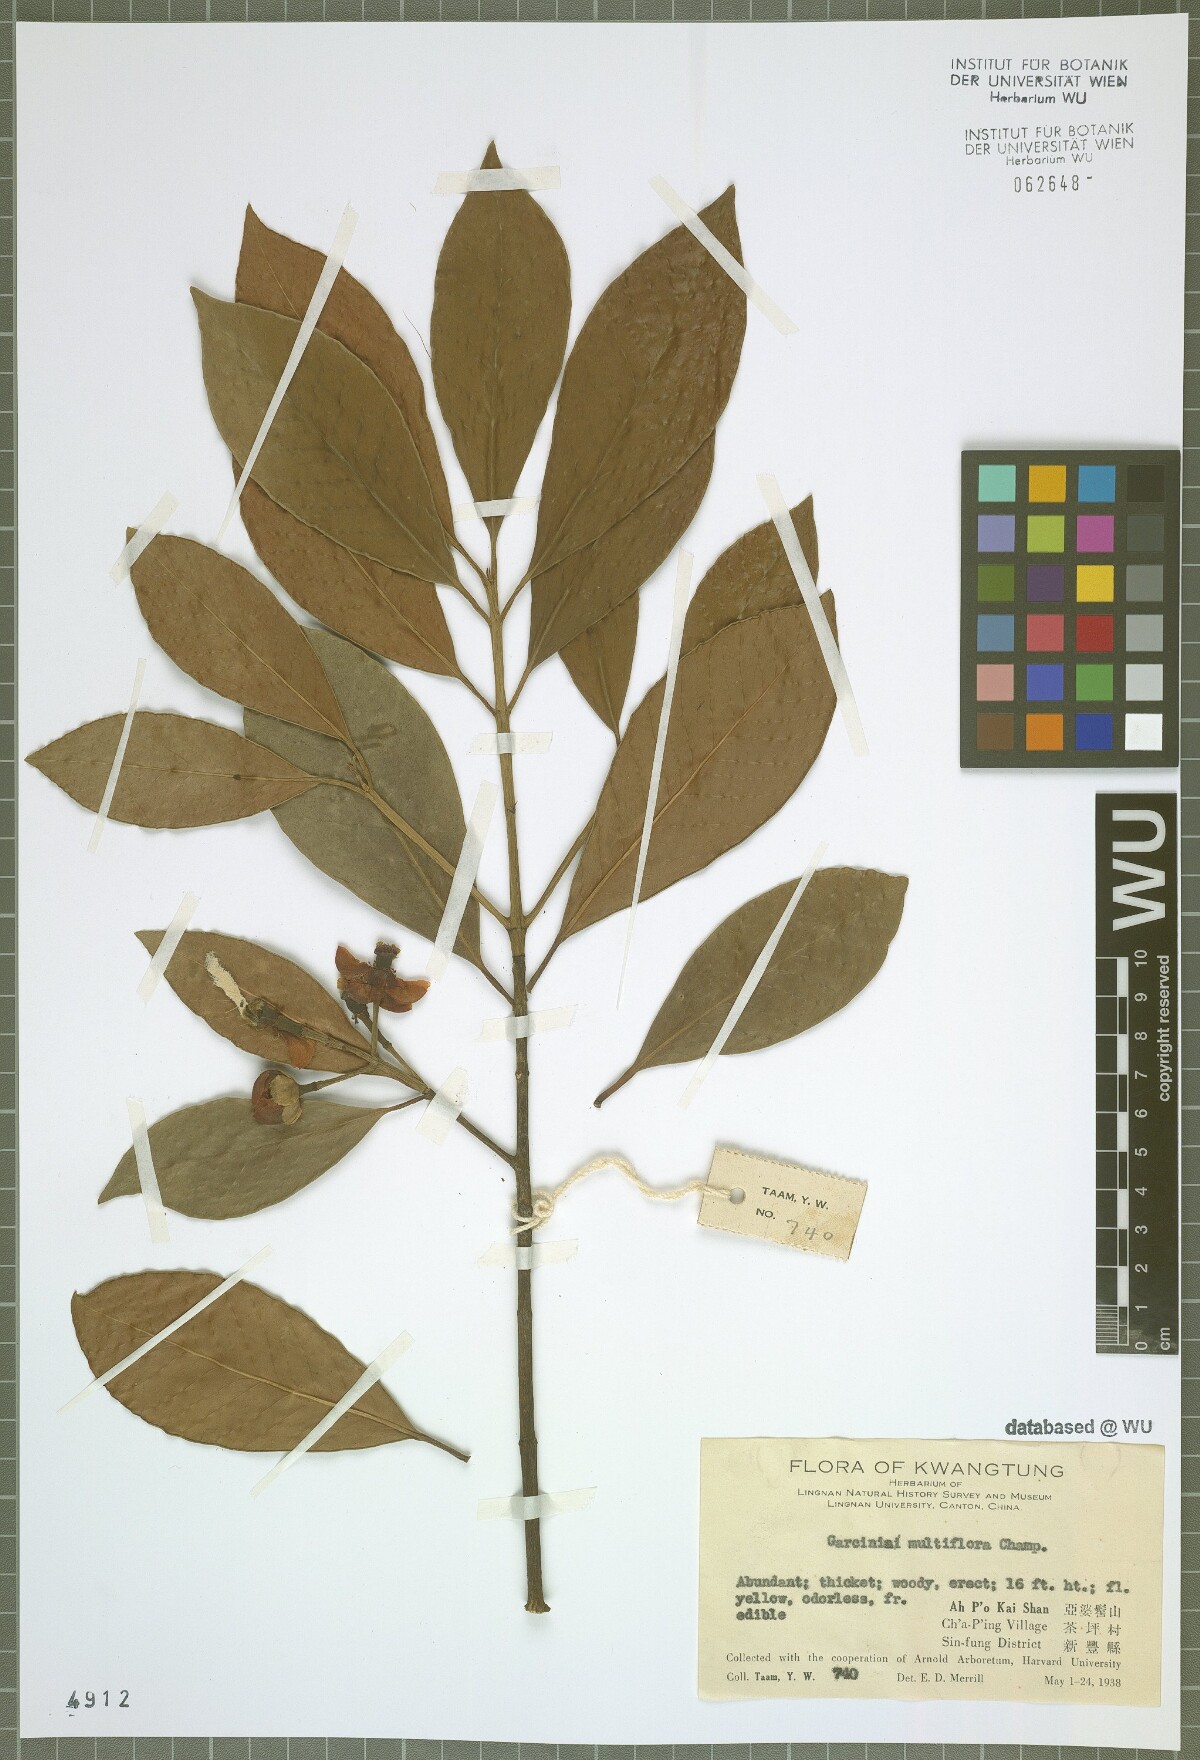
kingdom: Plantae
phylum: Tracheophyta
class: Magnoliopsida
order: Malpighiales
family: Clusiaceae
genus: Garcinia
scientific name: Garcinia multiflora
